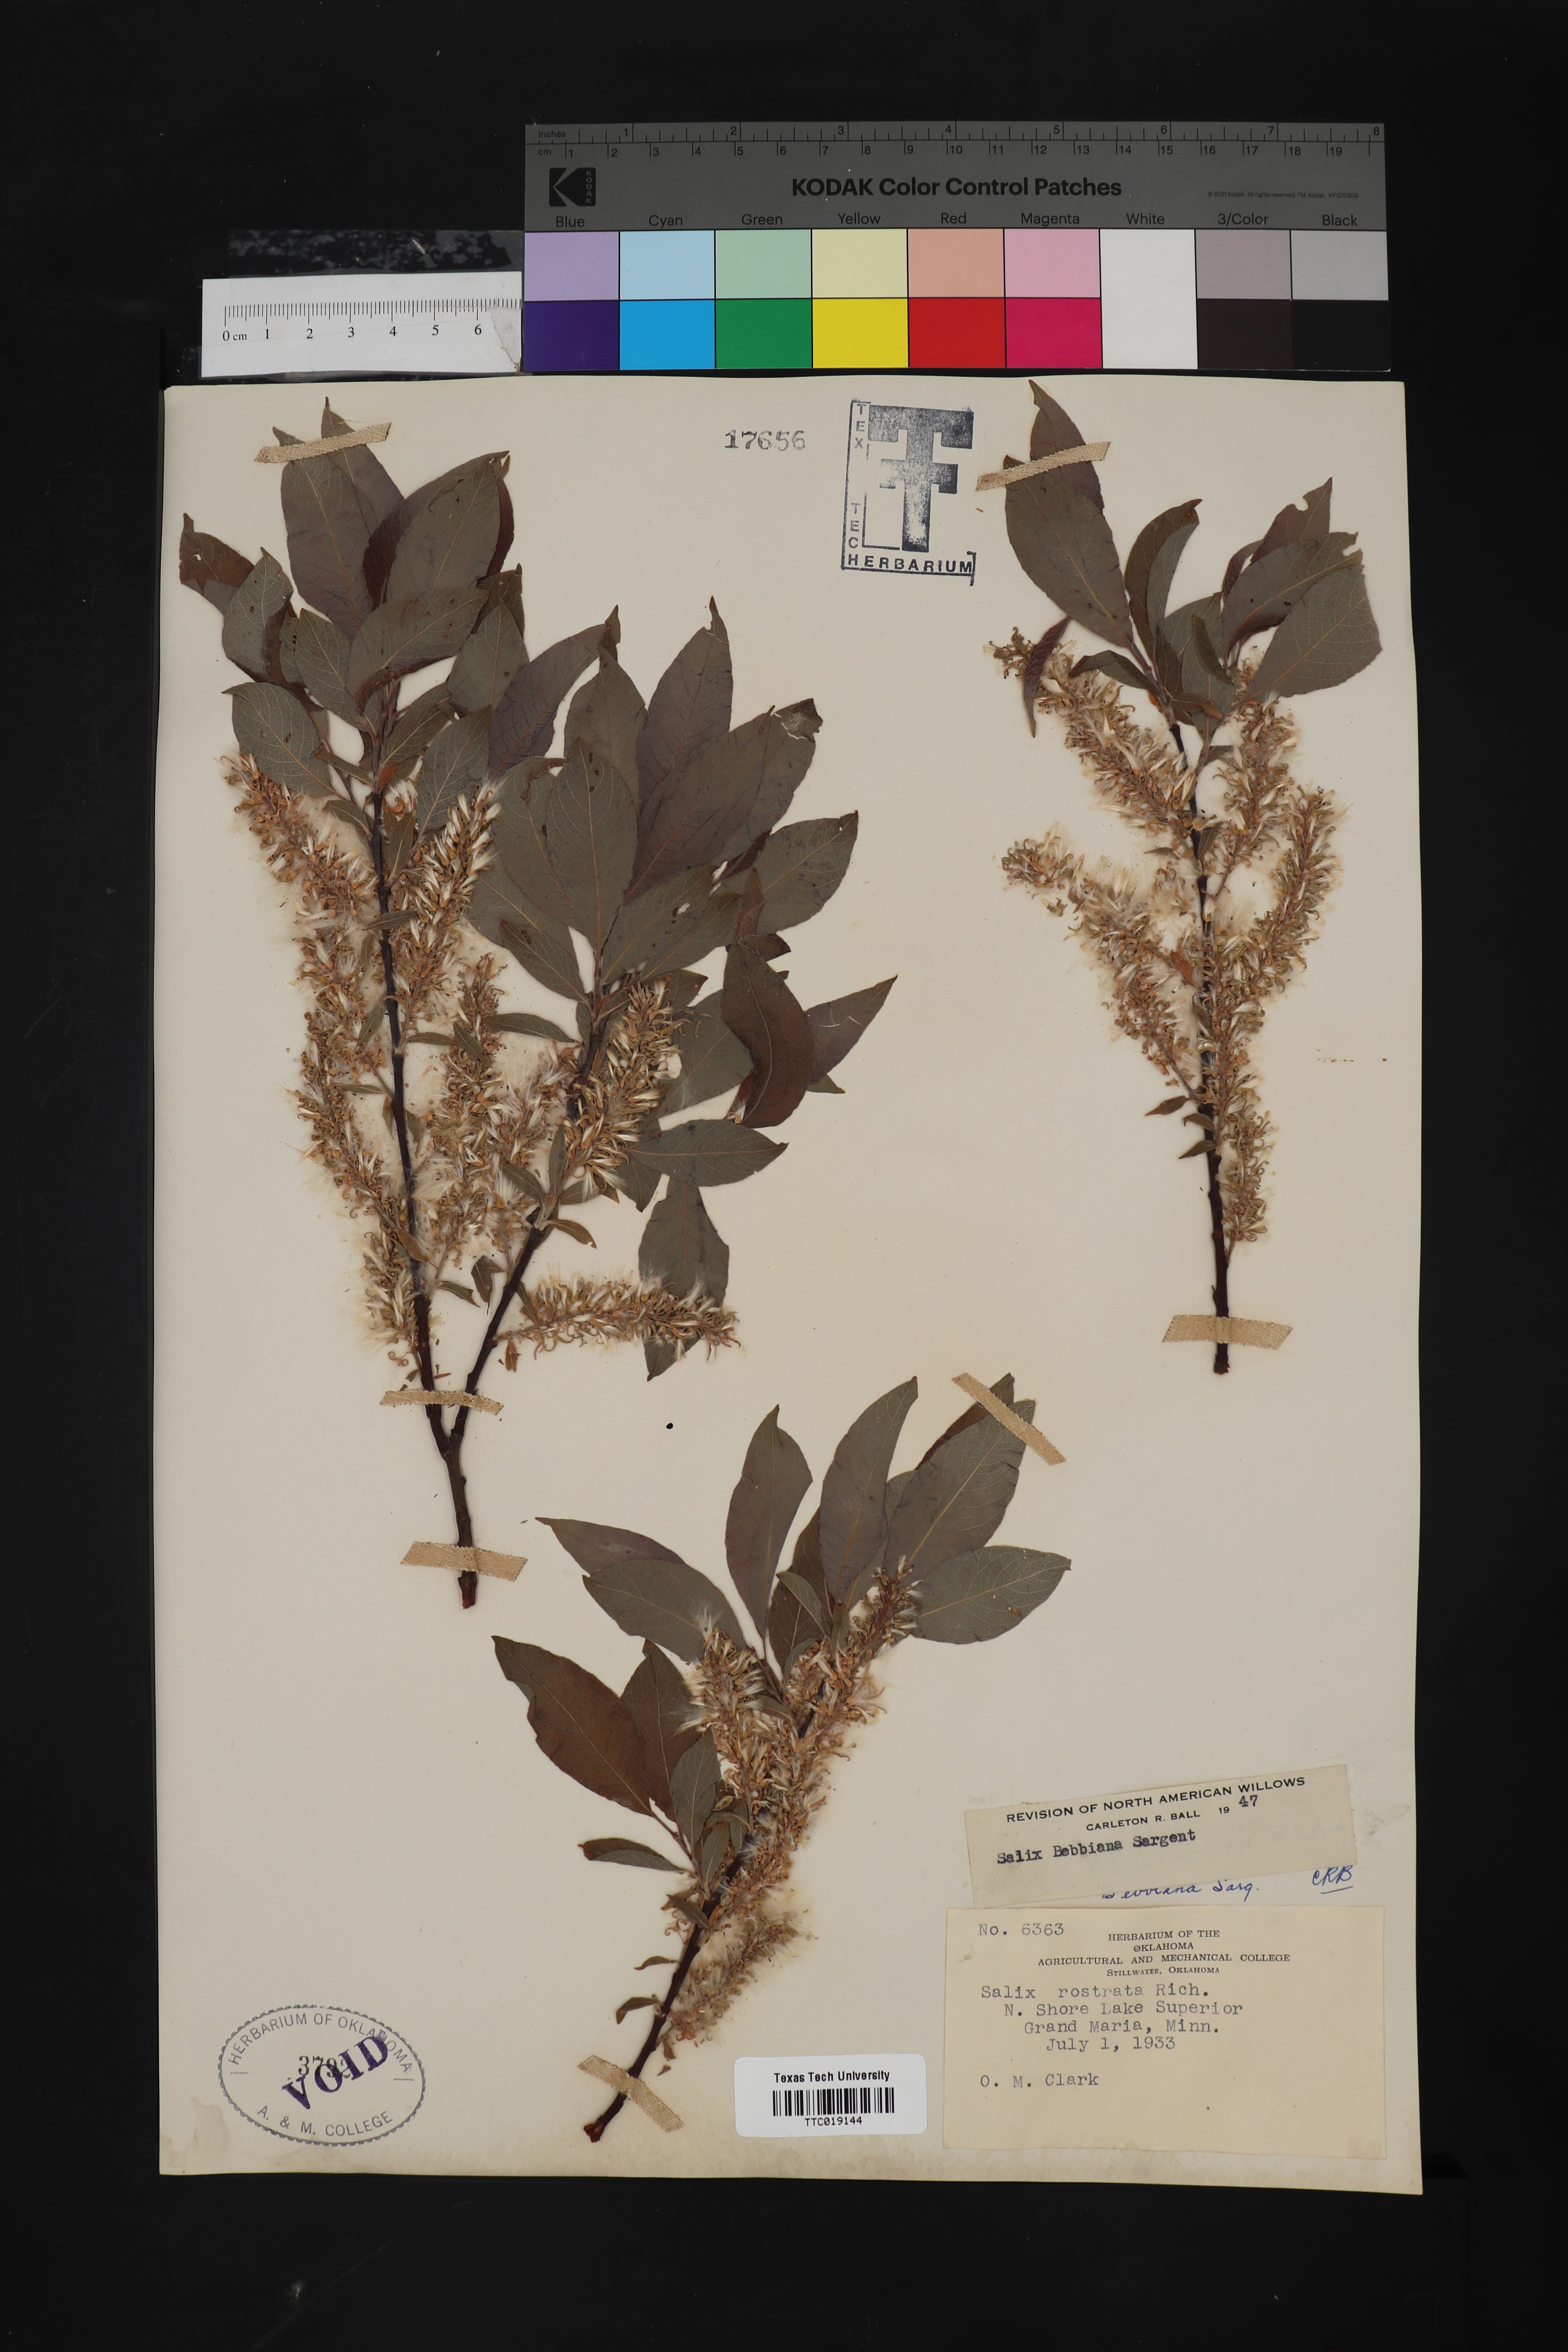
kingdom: Plantae
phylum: Tracheophyta
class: Magnoliopsida
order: Malpighiales
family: Salicaceae
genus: Salix
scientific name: Salix bebbiana
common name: Bebb's willow
